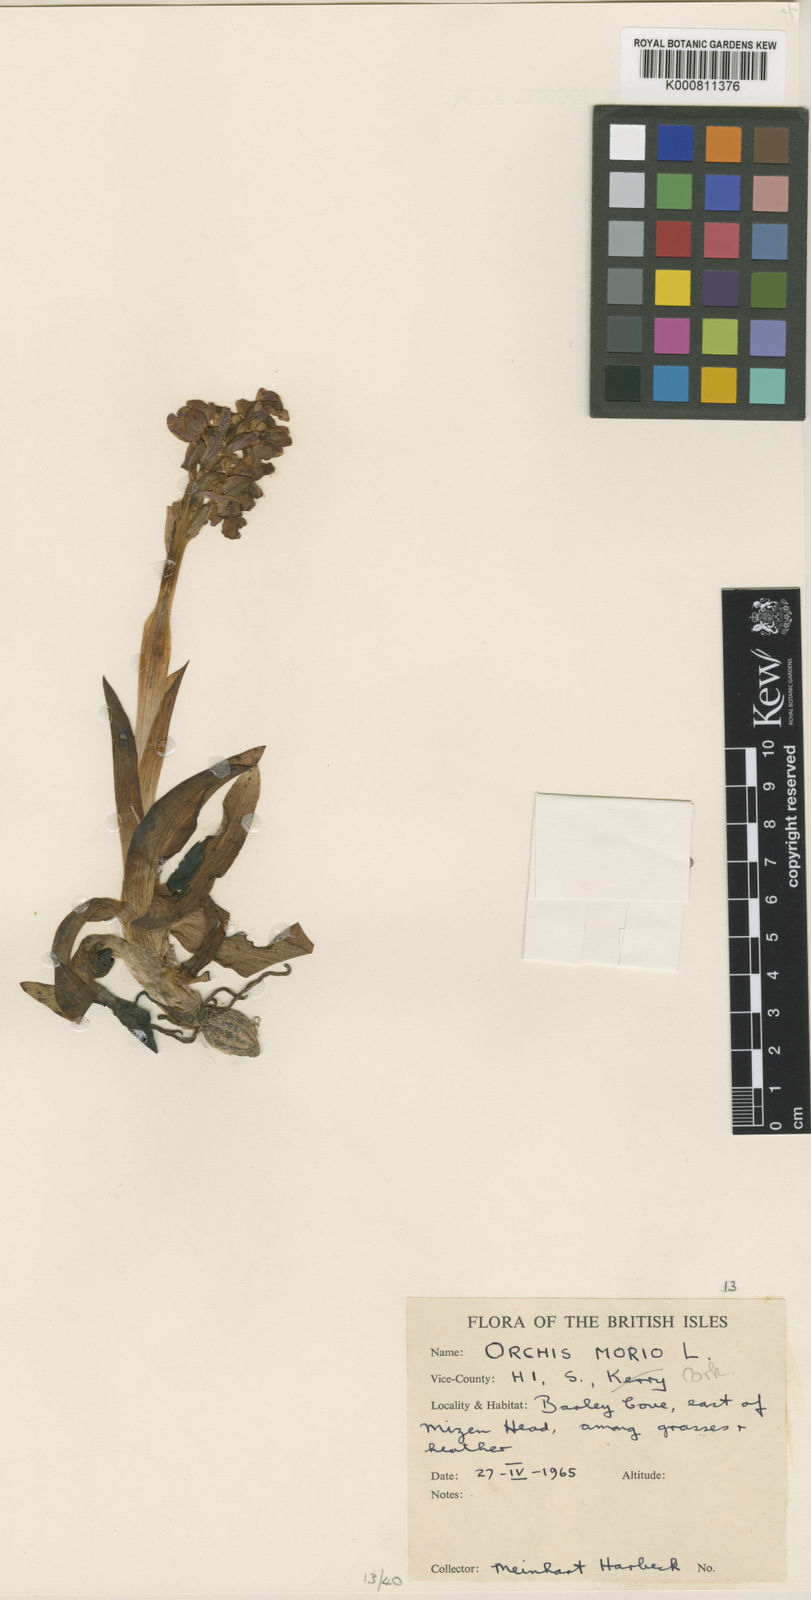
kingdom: Plantae
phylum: Tracheophyta
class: Liliopsida
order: Asparagales
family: Orchidaceae
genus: Anacamptis
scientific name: Anacamptis morio
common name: Green-winged orchid
